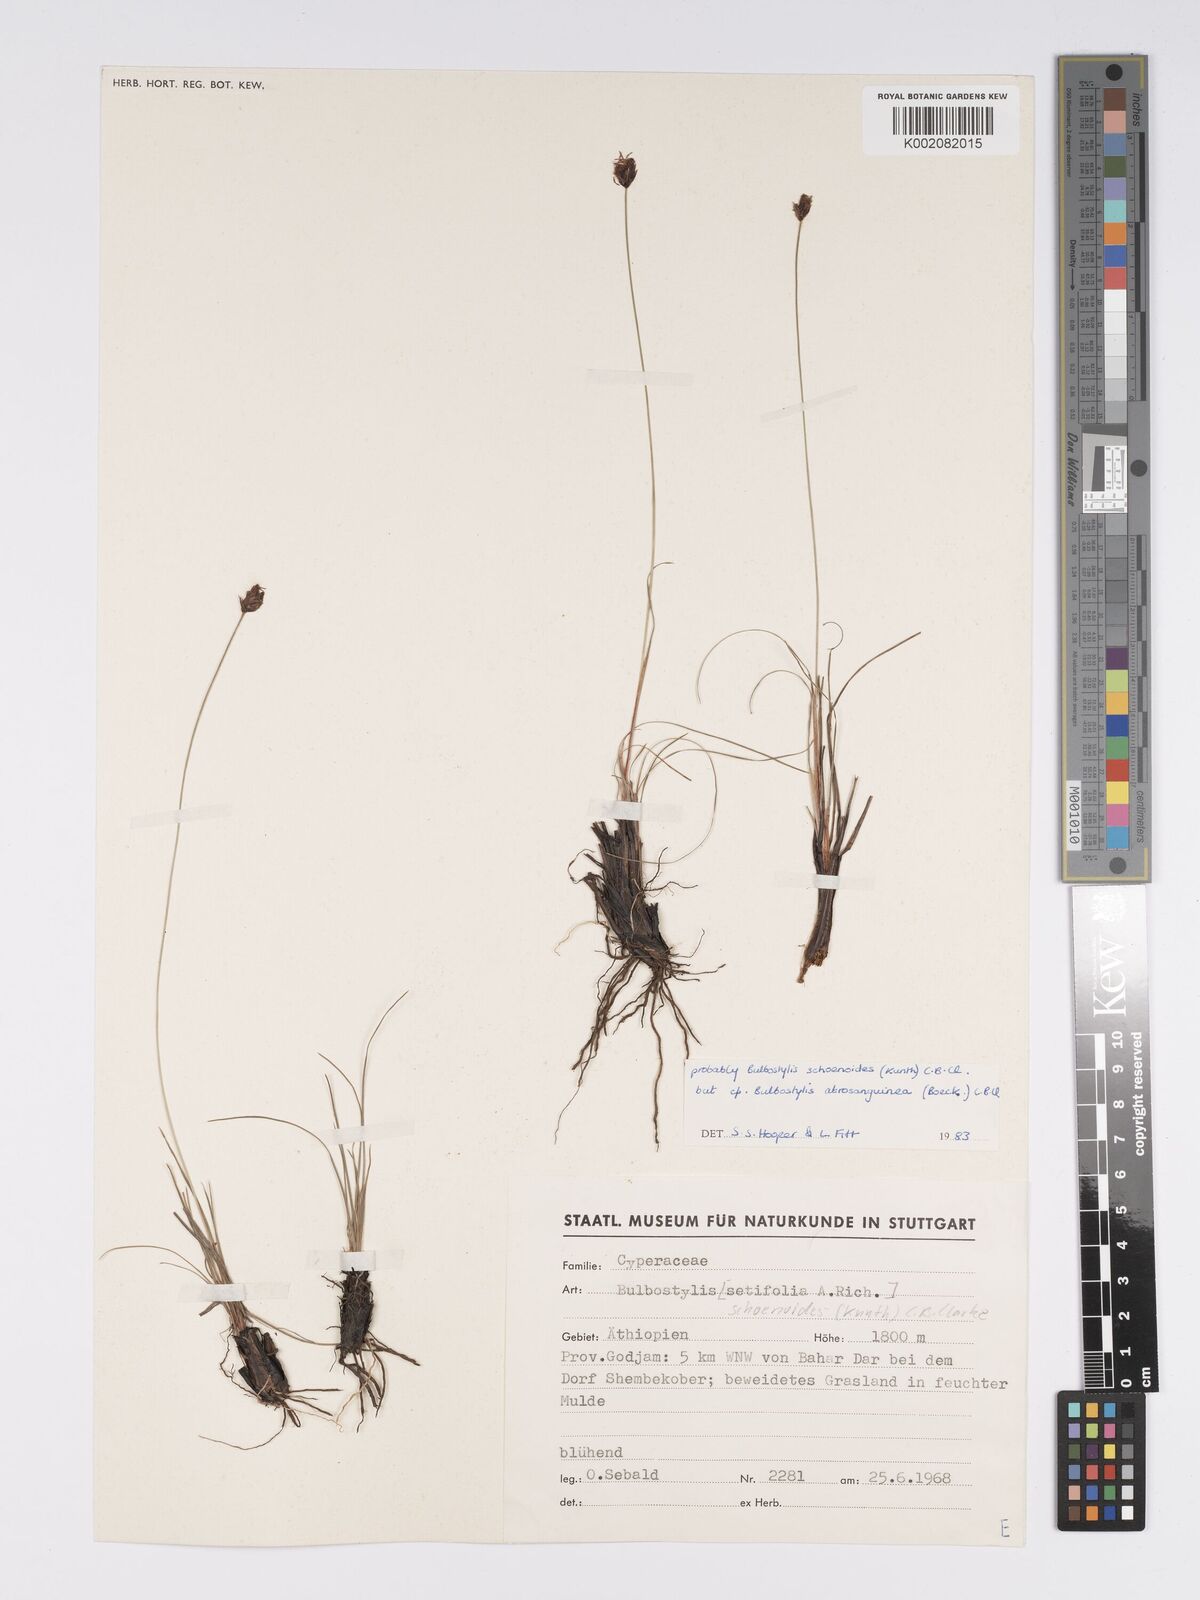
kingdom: Plantae
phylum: Tracheophyta
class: Liliopsida
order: Poales
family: Cyperaceae
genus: Bulbostylis
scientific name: Bulbostylis schoenoides
